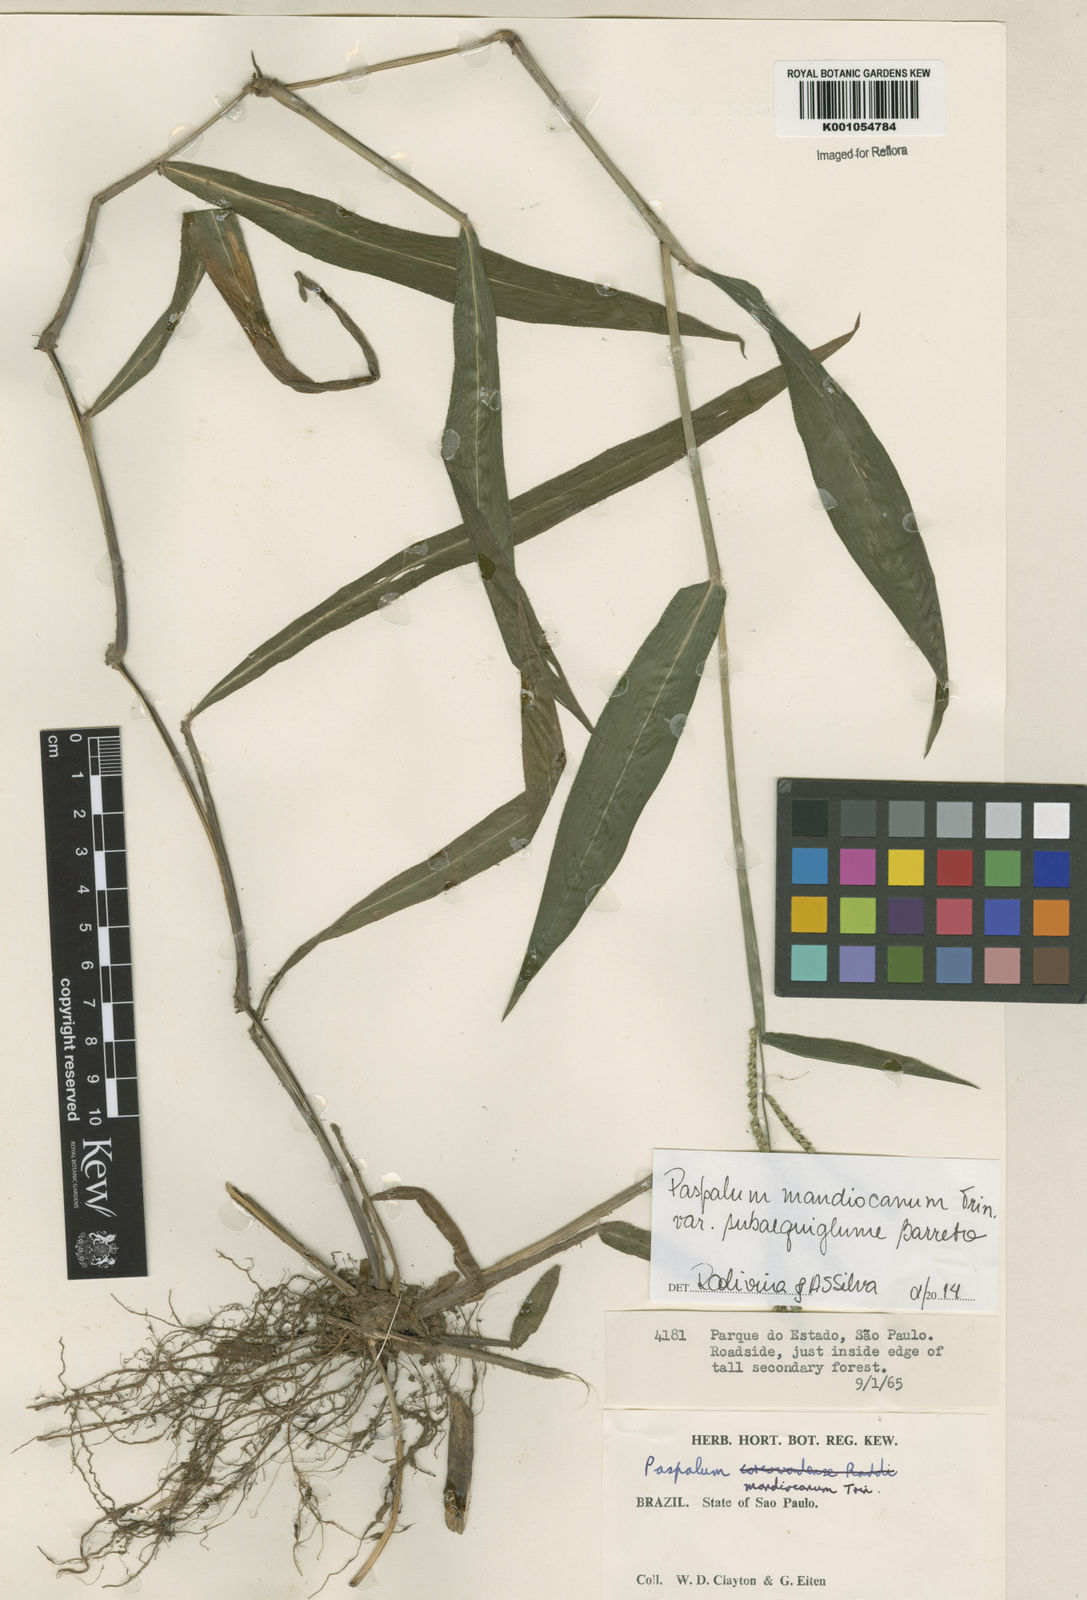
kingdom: Plantae
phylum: Tracheophyta
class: Liliopsida
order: Poales
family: Poaceae
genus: Paspalum
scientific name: Paspalum mandiocanum
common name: Paspalum
